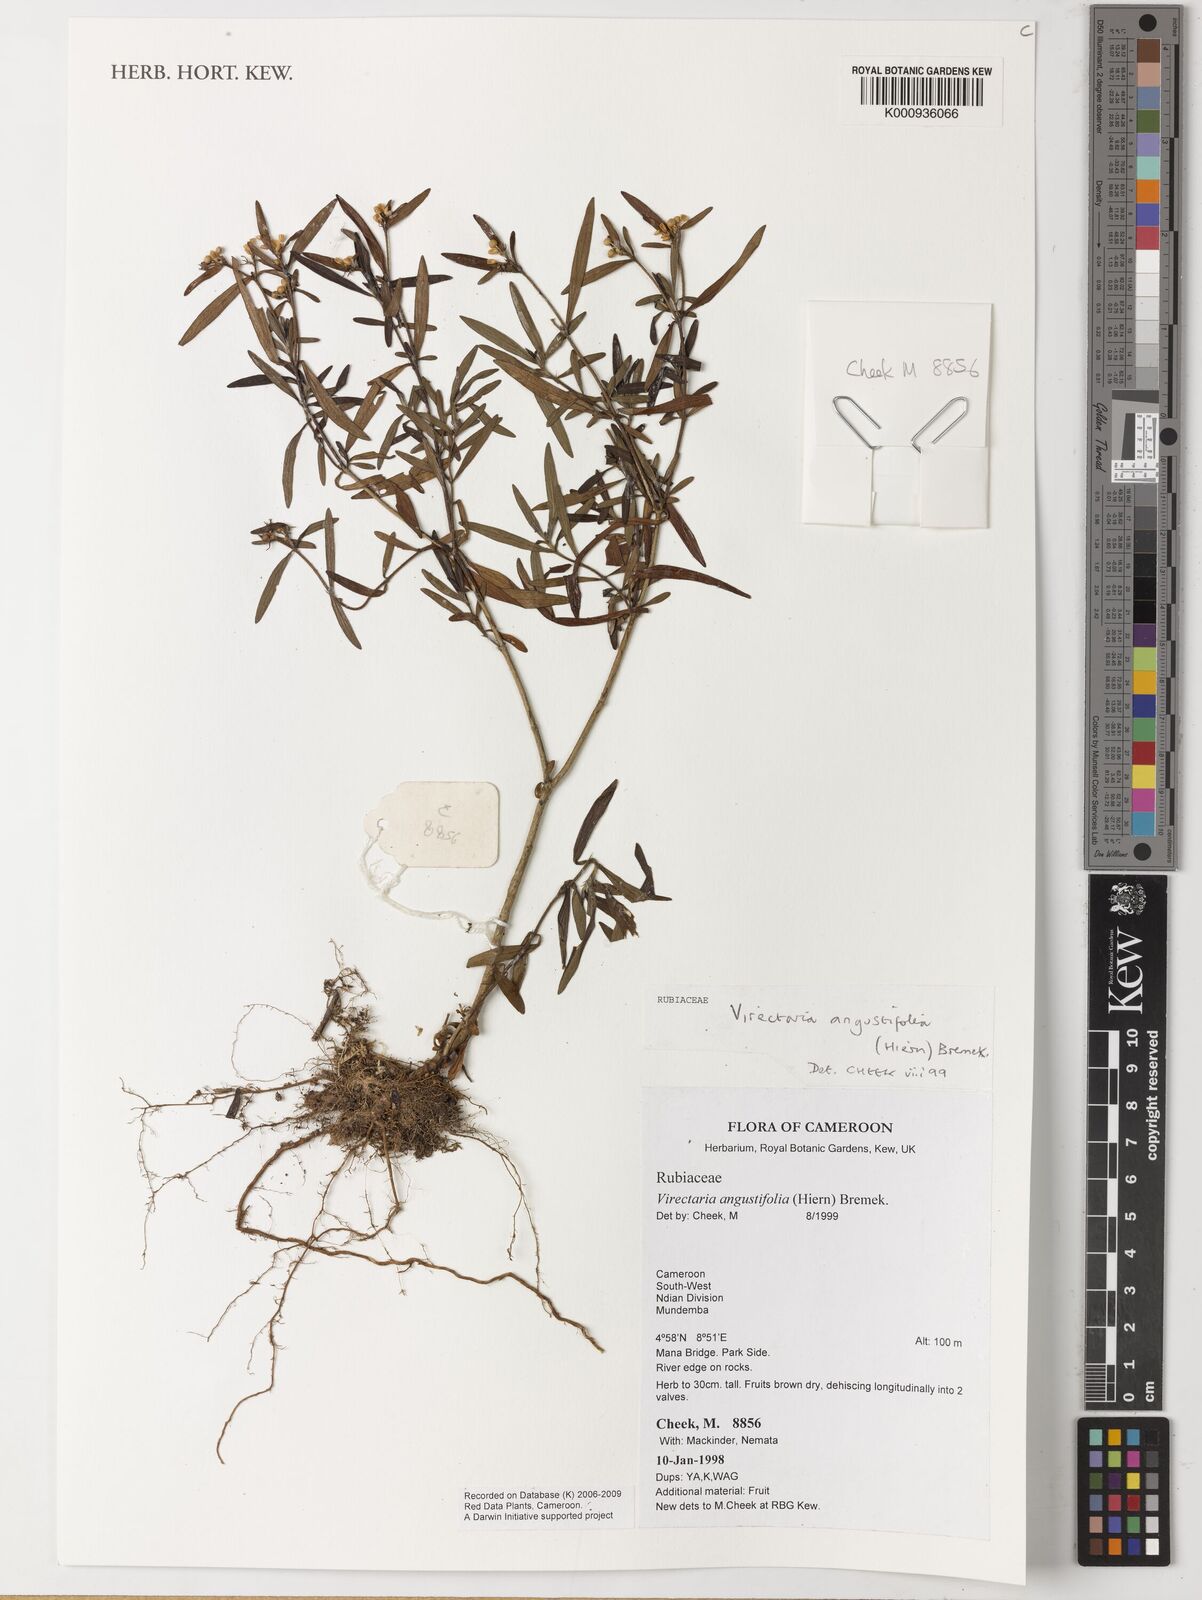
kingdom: Plantae
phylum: Tracheophyta
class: Magnoliopsida
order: Gentianales
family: Rubiaceae
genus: Virectaria
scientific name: Virectaria angustifolia
